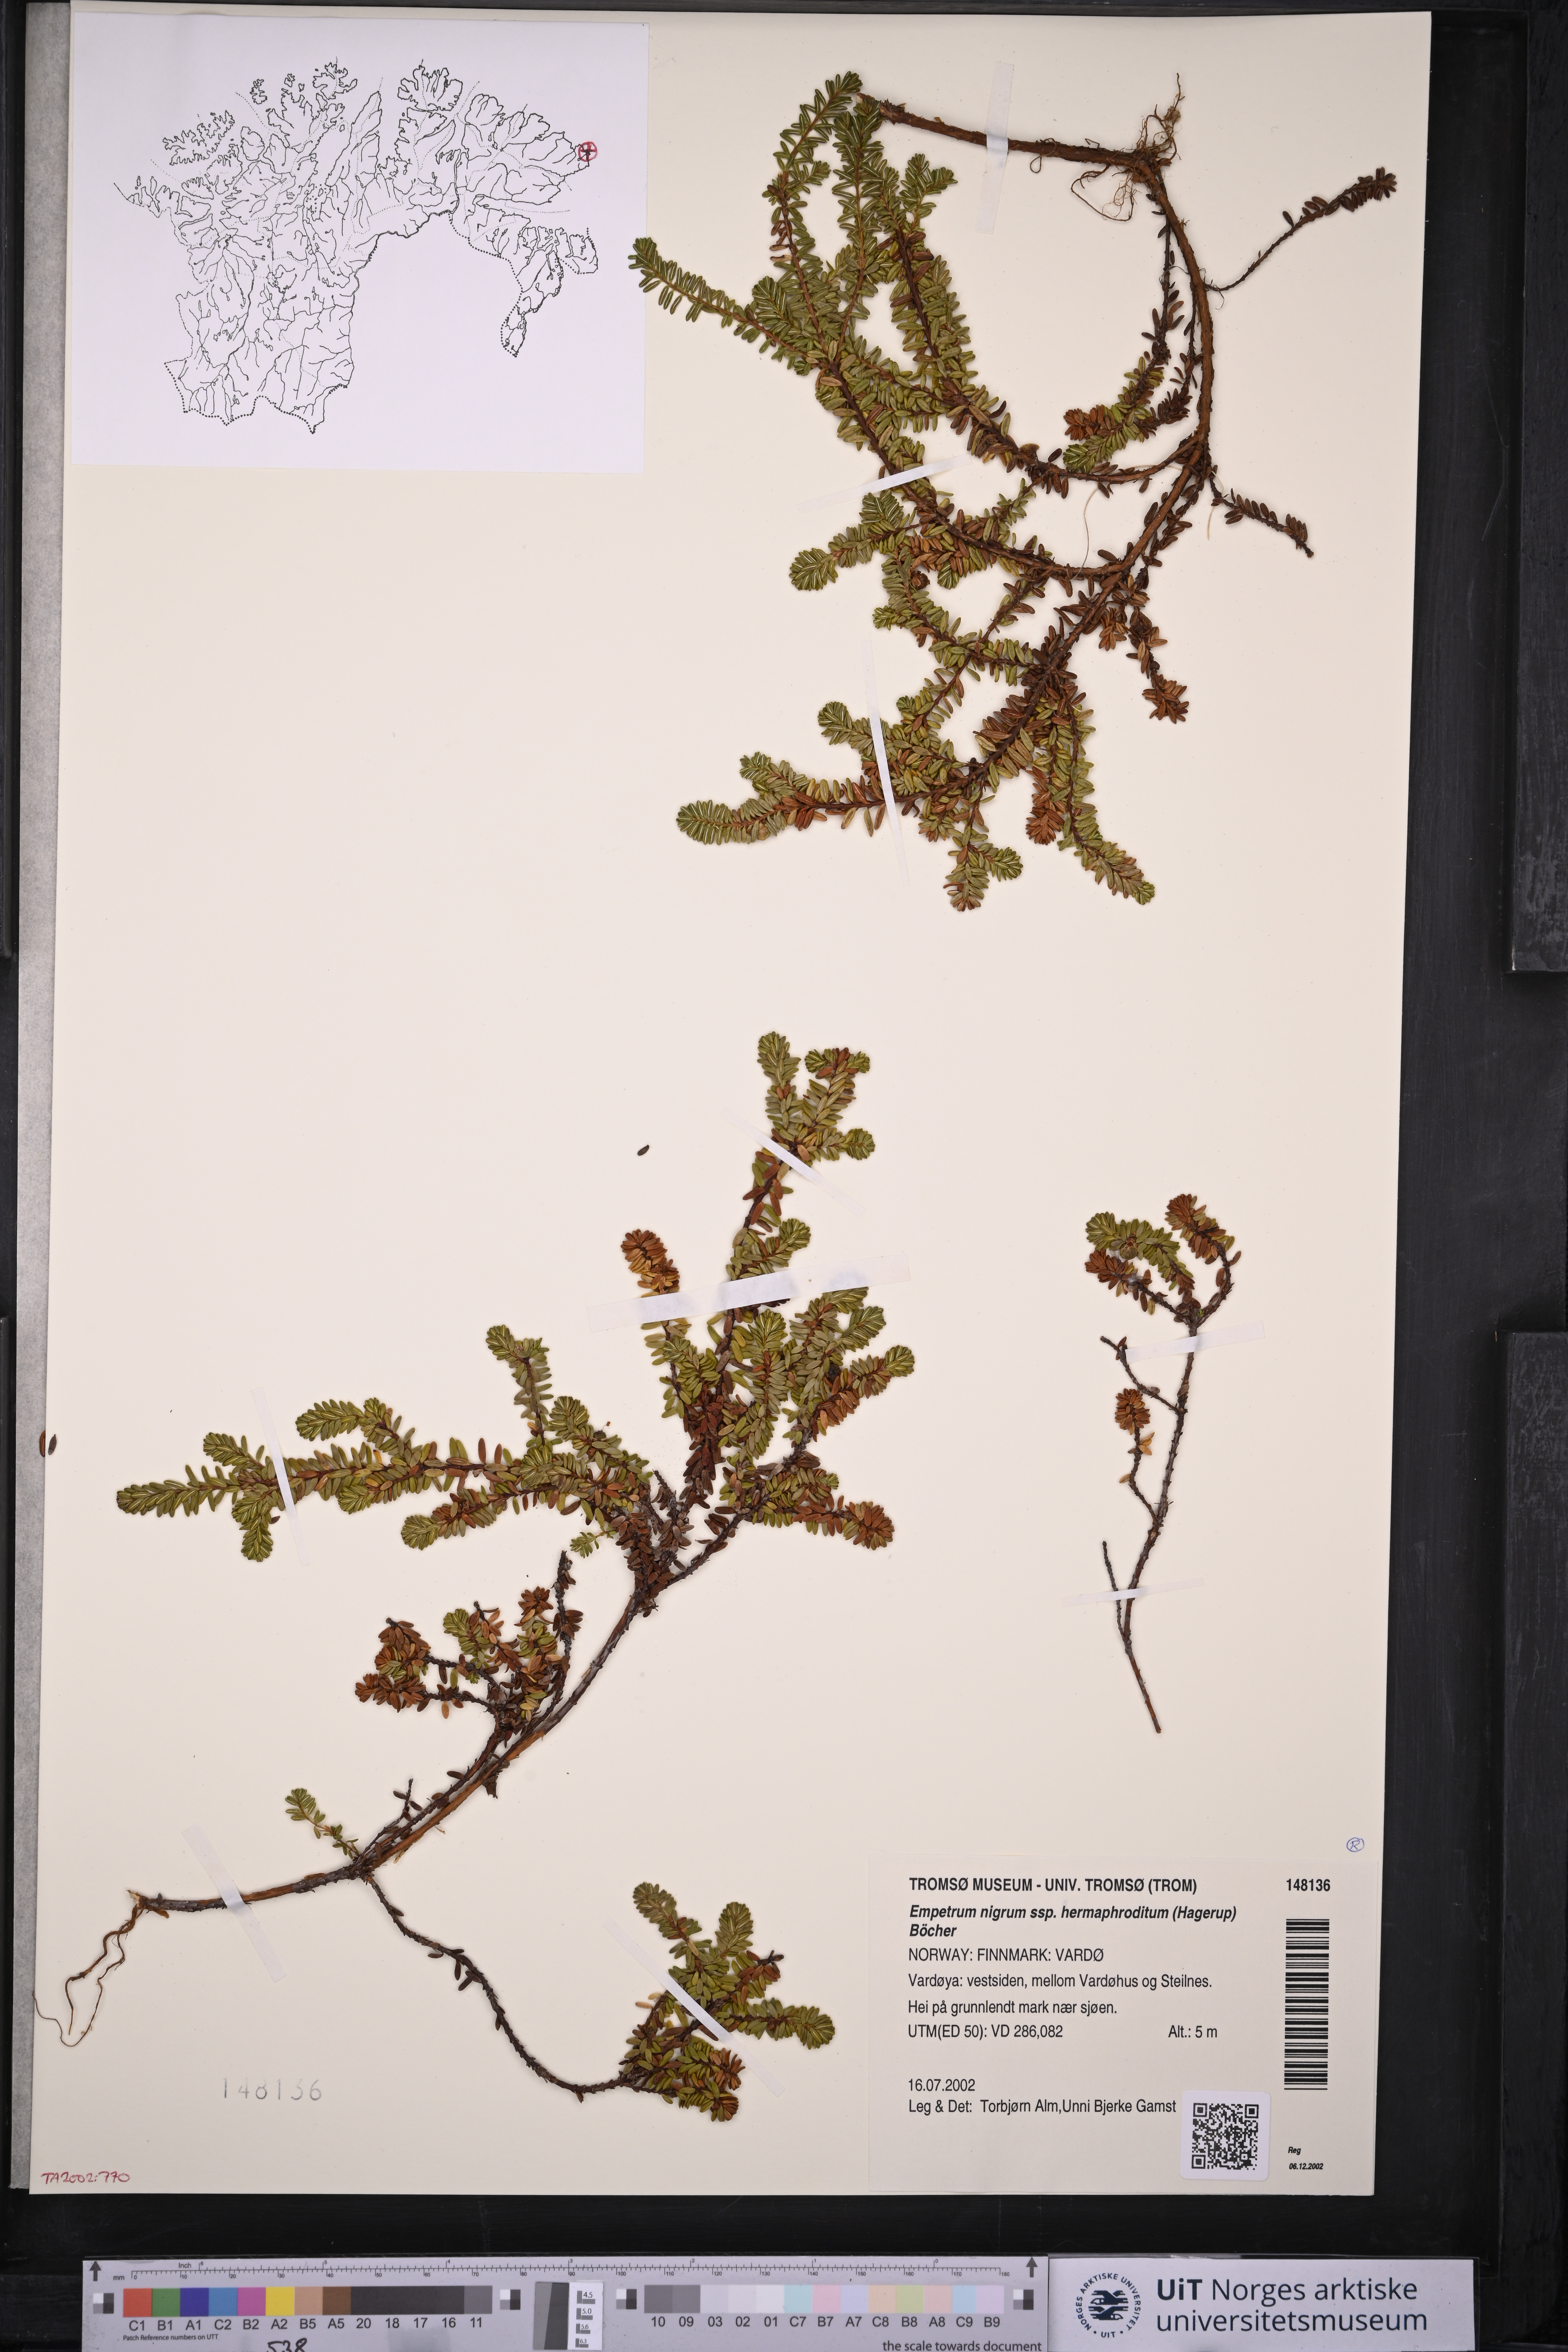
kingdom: Plantae
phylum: Tracheophyta
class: Magnoliopsida
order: Ericales
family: Ericaceae
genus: Empetrum
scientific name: Empetrum hermaphroditum
